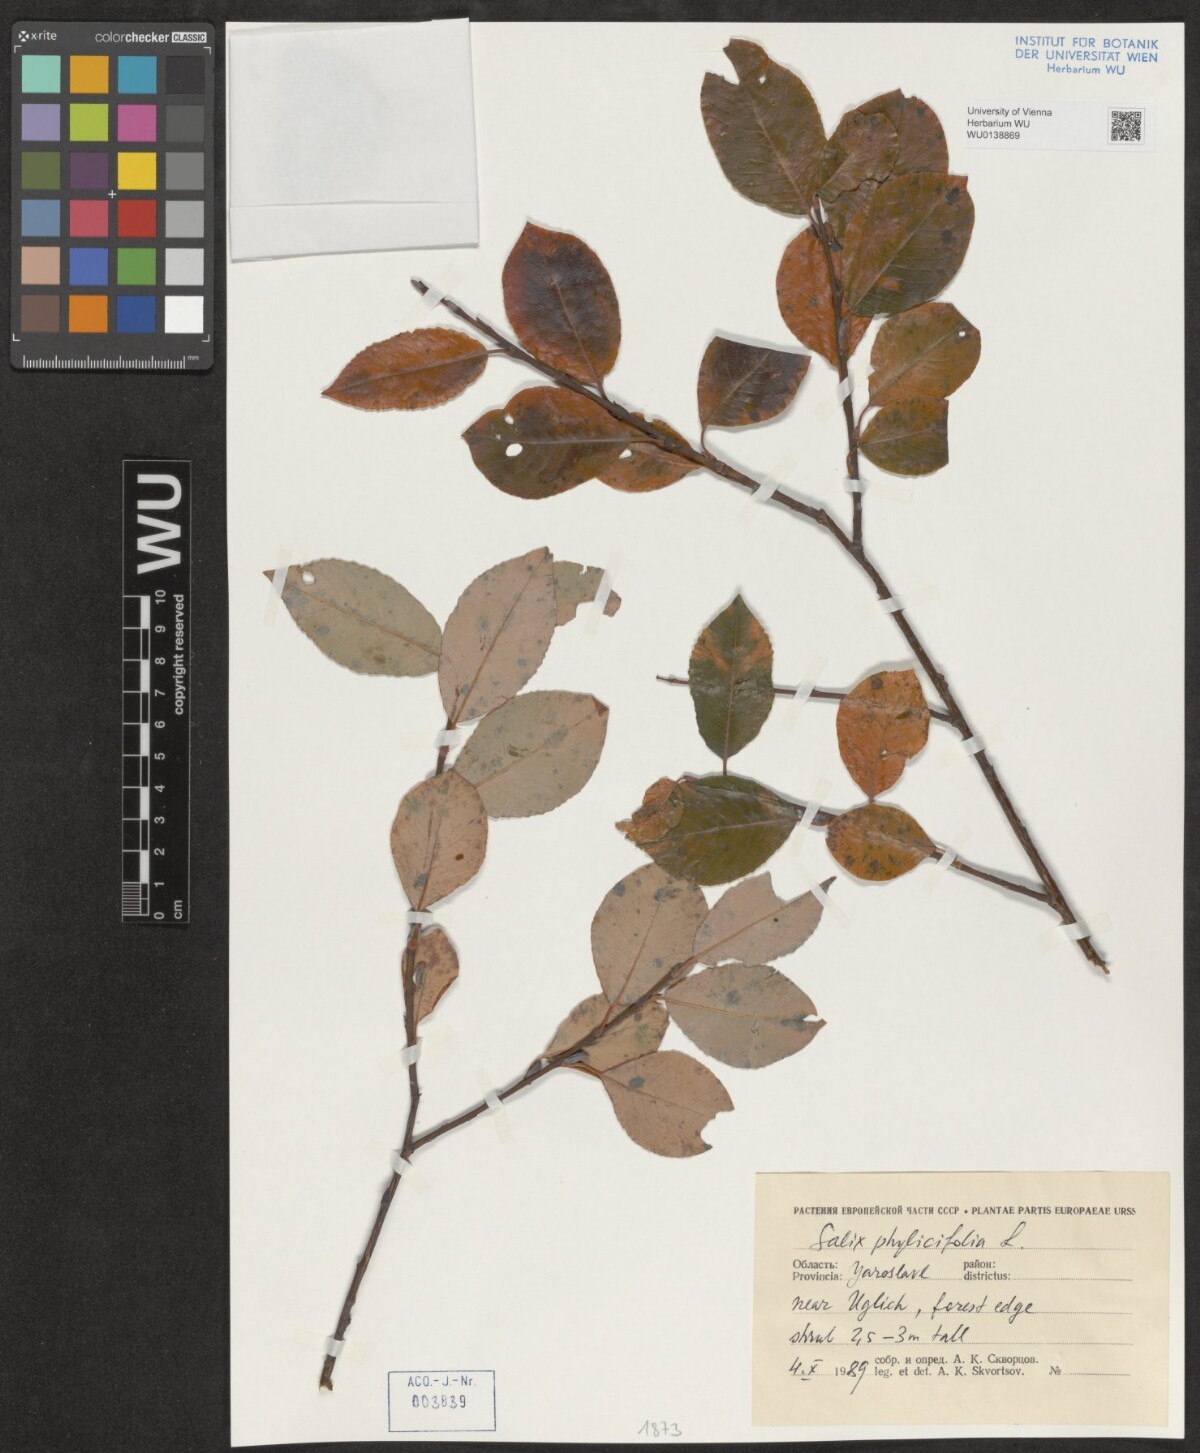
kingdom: Plantae
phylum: Tracheophyta
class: Magnoliopsida
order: Malpighiales
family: Salicaceae
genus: Salix
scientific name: Salix phylicifolia
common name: Tea-leaved willow
